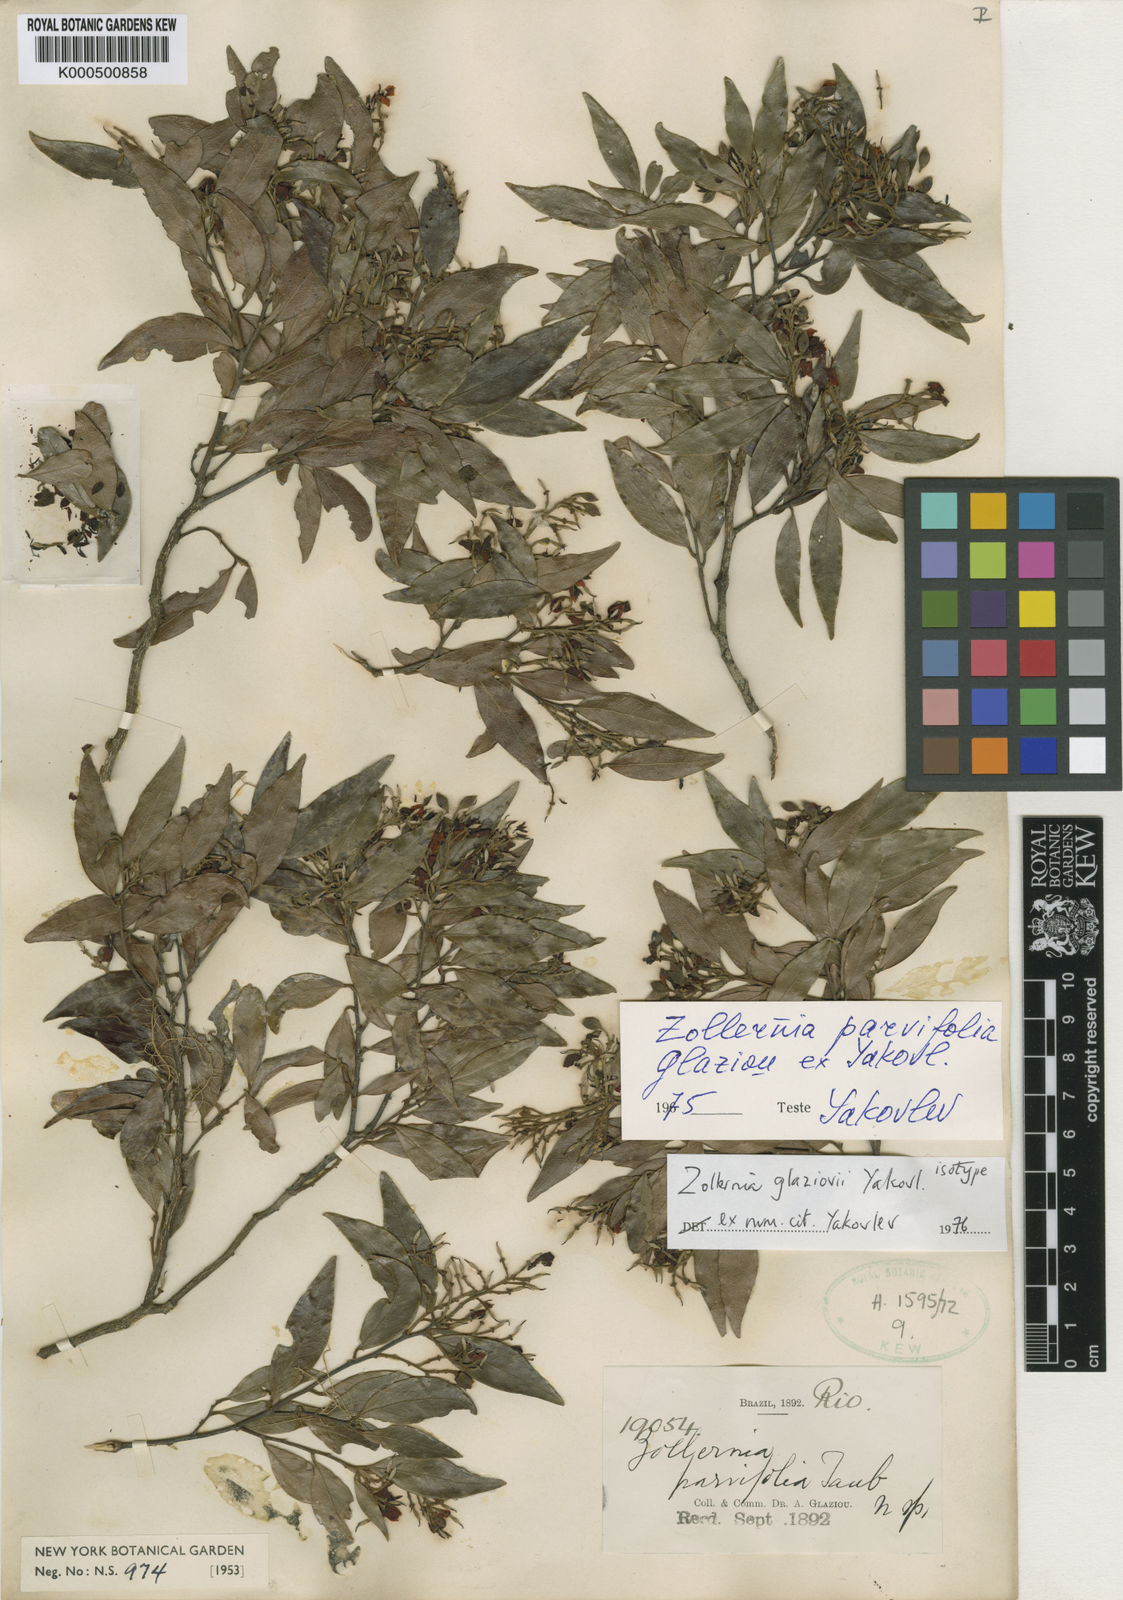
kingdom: Plantae
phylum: Tracheophyta
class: Magnoliopsida
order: Fabales
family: Fabaceae
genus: Zollernia
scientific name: Zollernia
